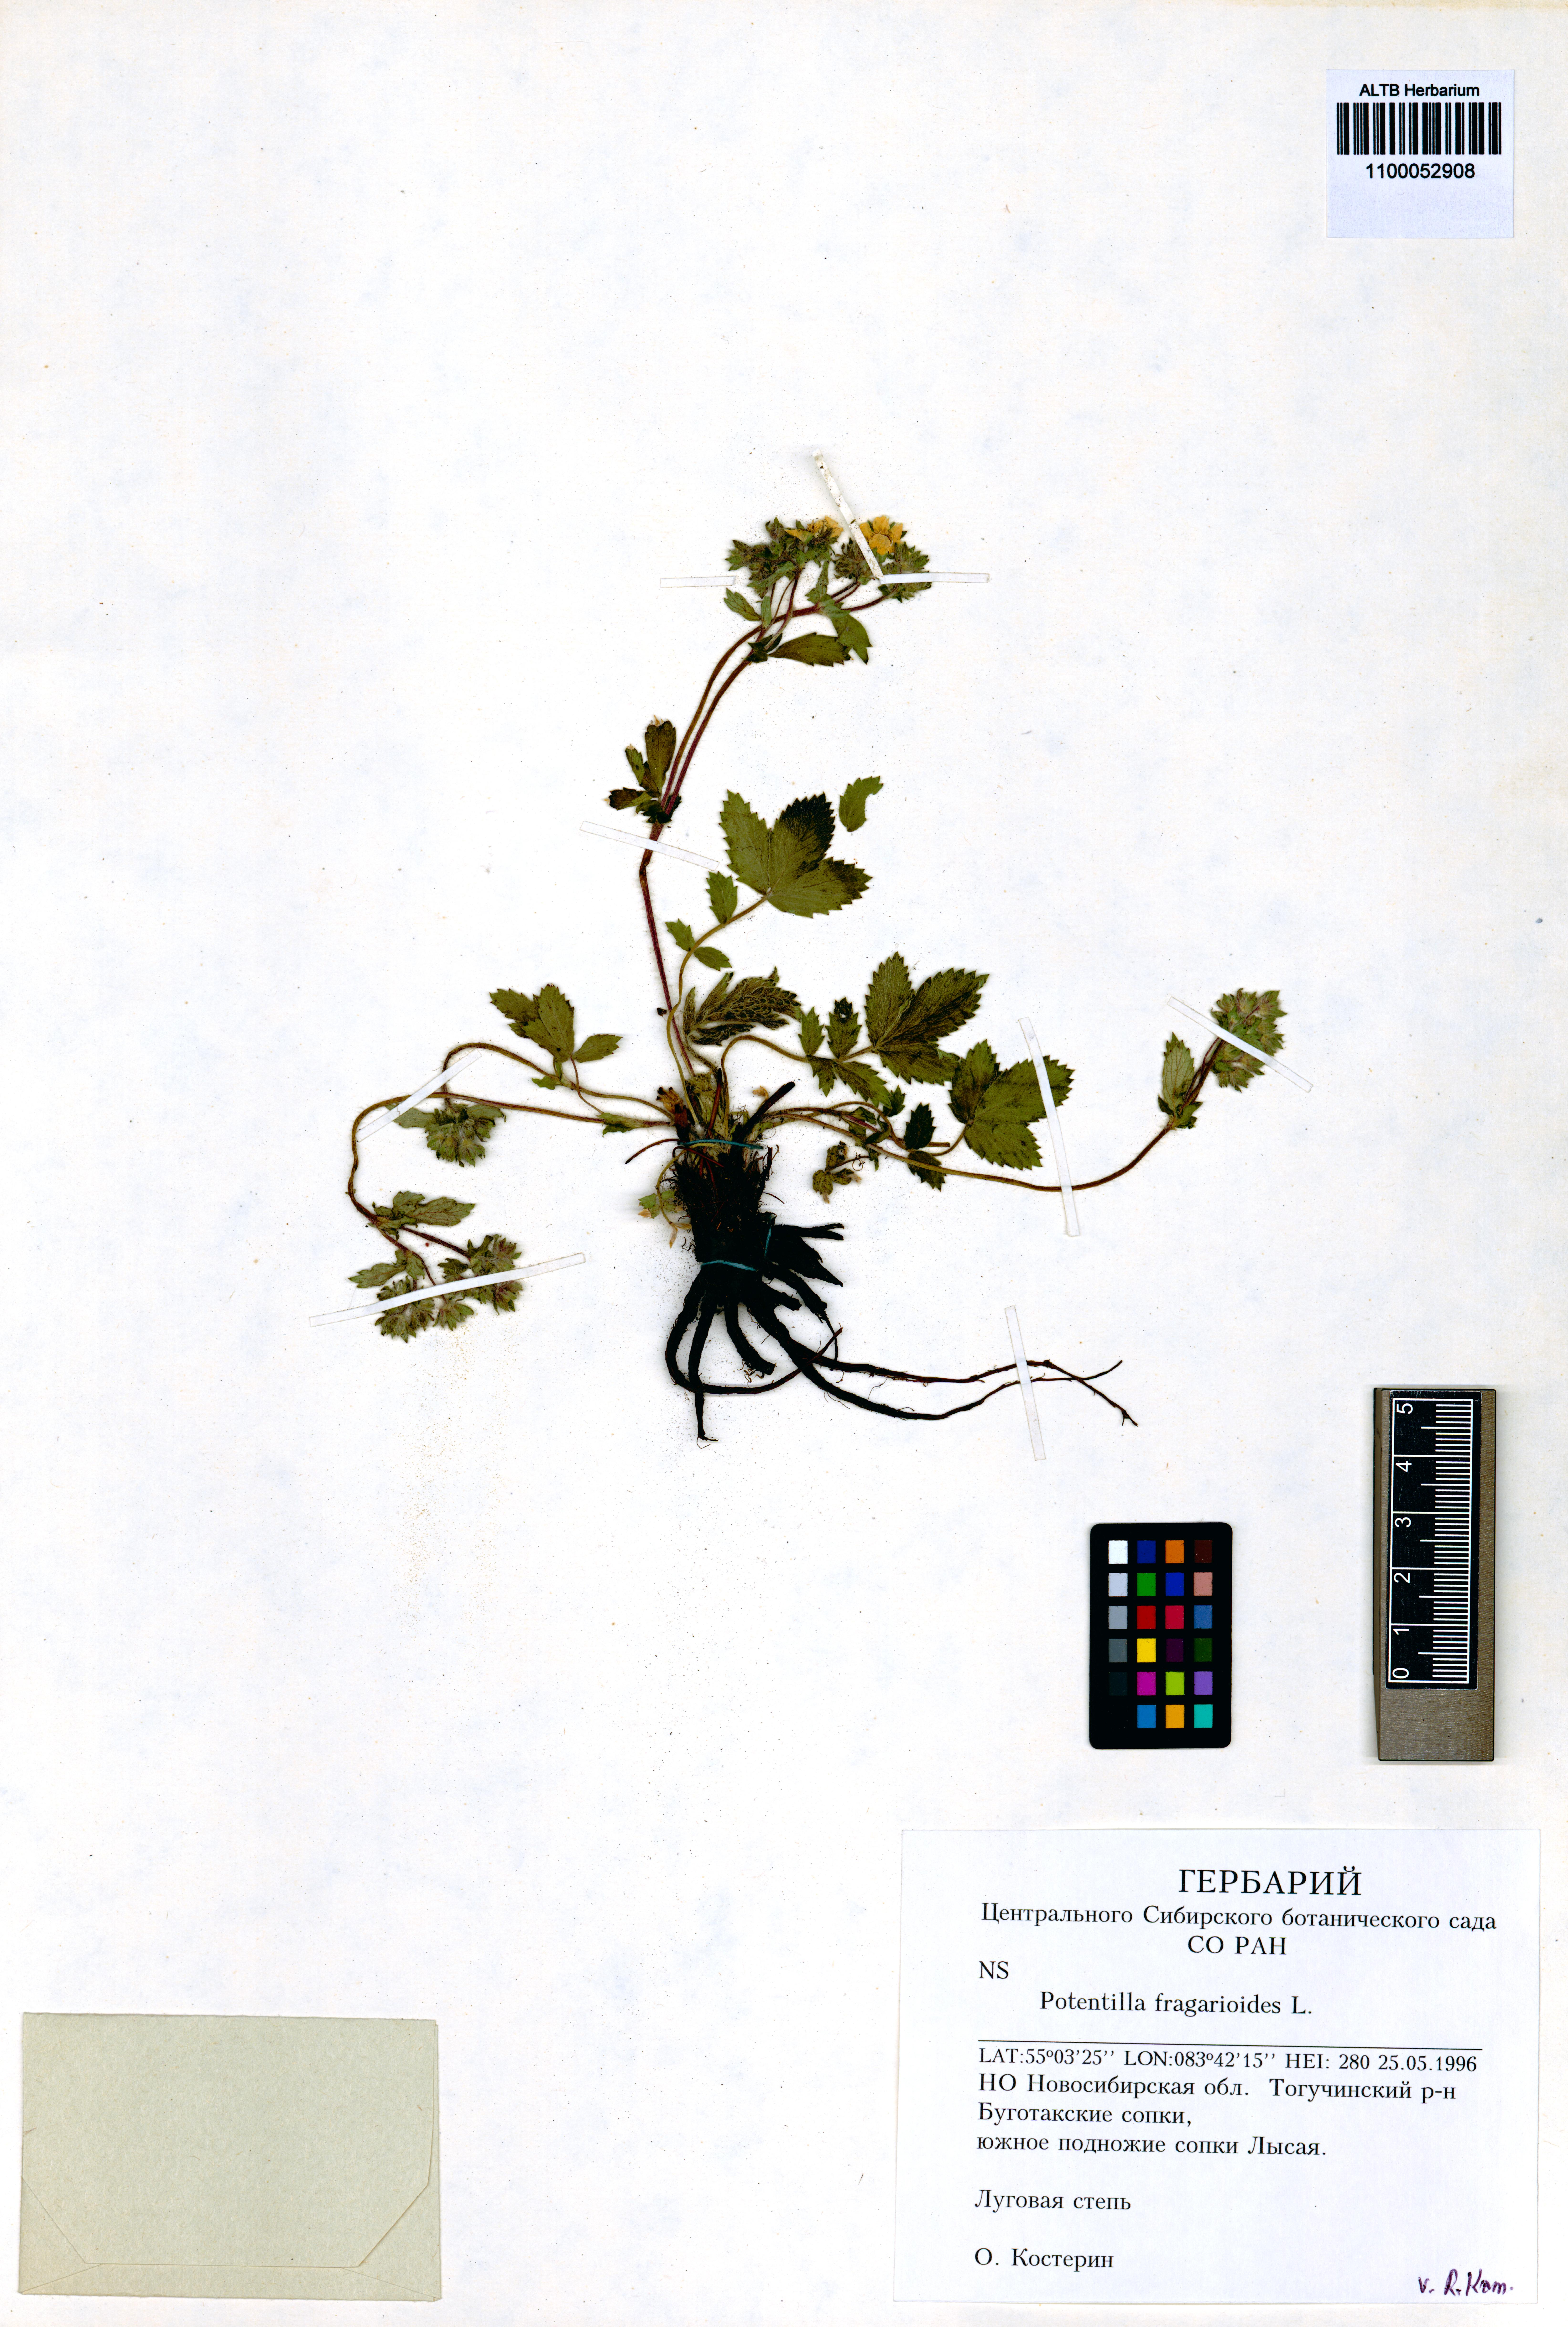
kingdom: Plantae
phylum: Tracheophyta
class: Magnoliopsida
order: Rosales
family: Rosaceae
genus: Potentilla
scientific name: Potentilla fragarioides
